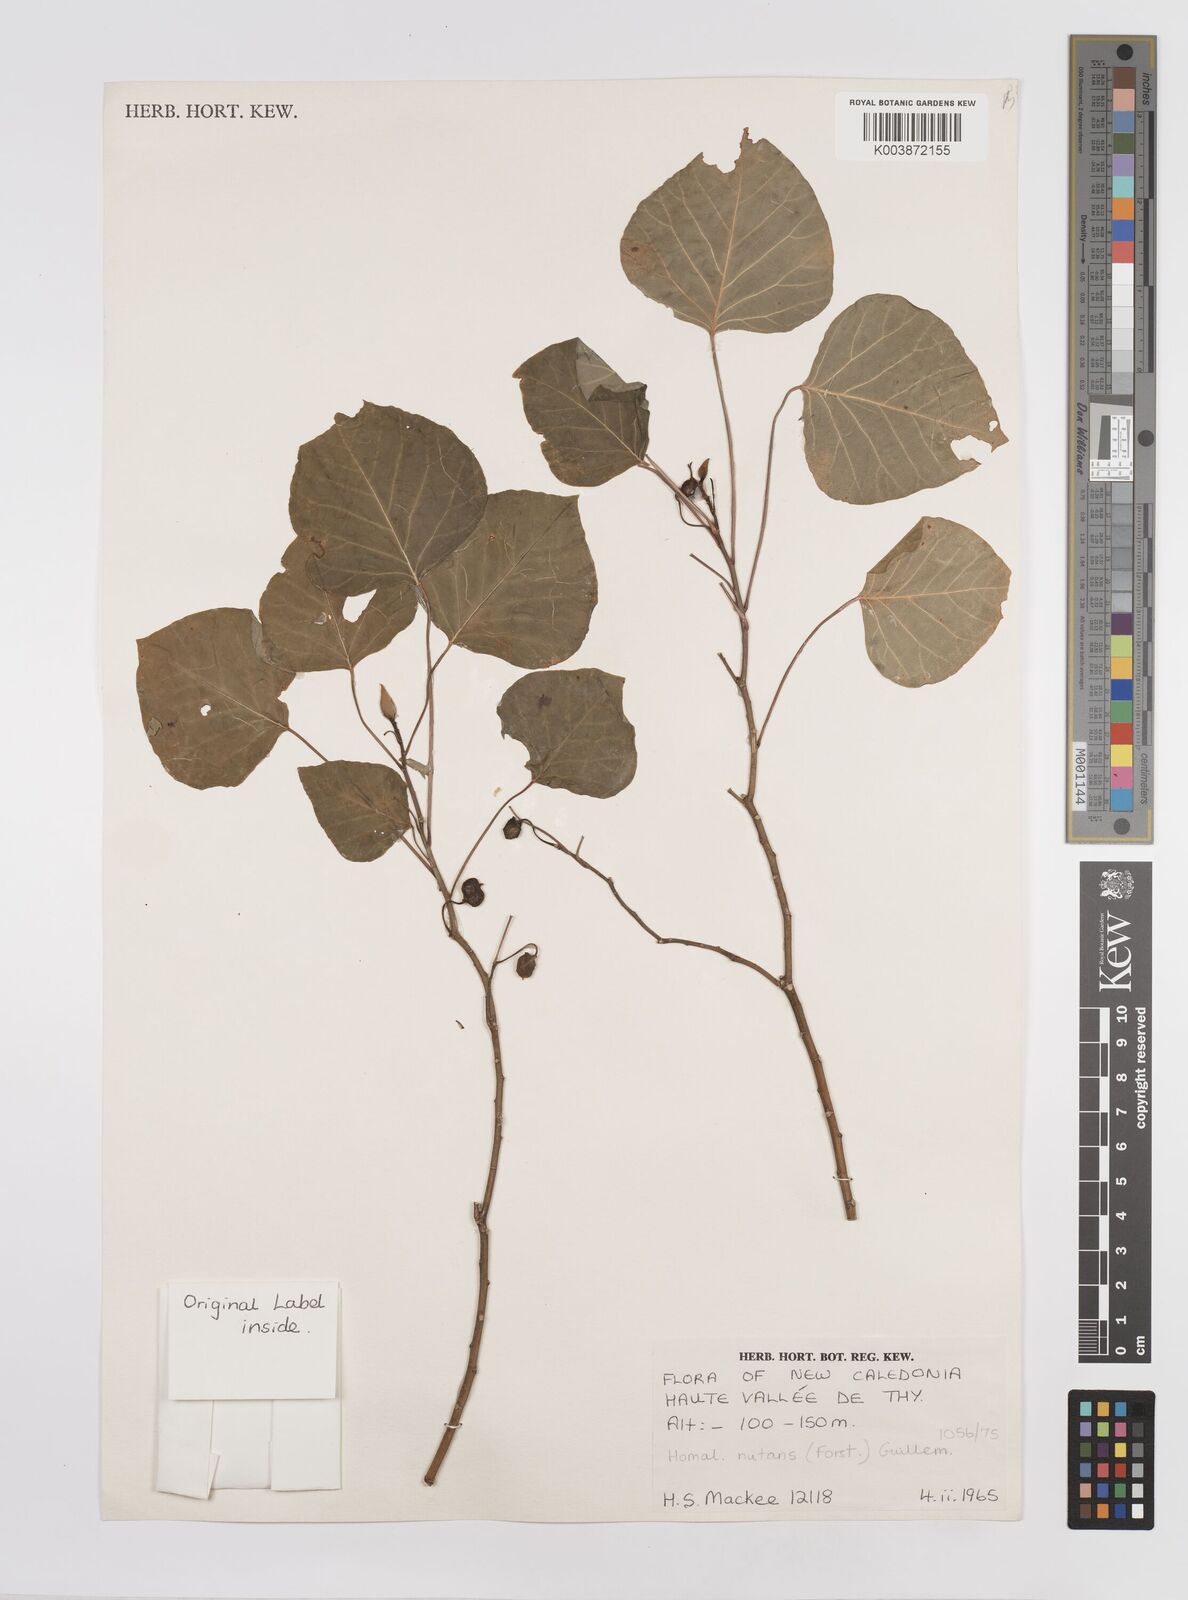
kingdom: Plantae
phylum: Tracheophyta
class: Magnoliopsida
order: Malpighiales
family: Euphorbiaceae
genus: Homalanthus
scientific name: Homalanthus nutans
